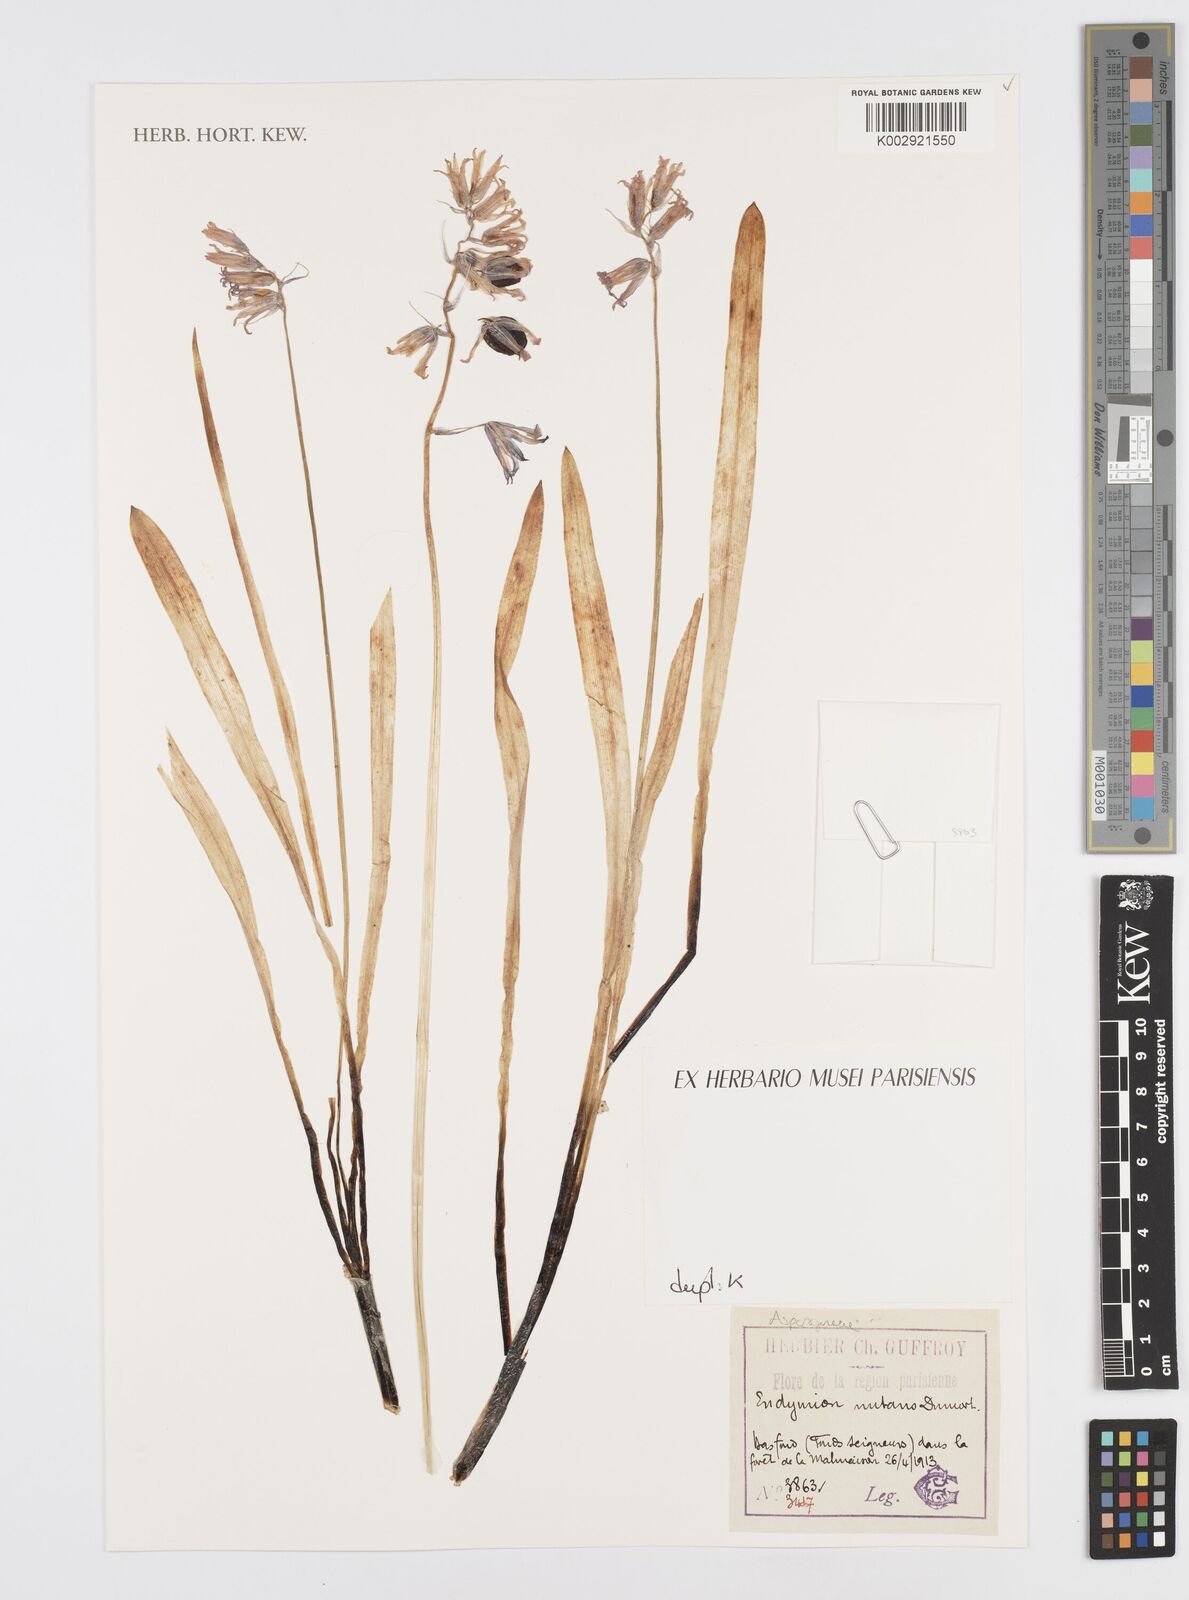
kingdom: Plantae
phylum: Tracheophyta
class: Liliopsida
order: Asparagales
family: Asparagaceae
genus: Hyacinthoides
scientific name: Hyacinthoides non-scripta
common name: Bluebell
